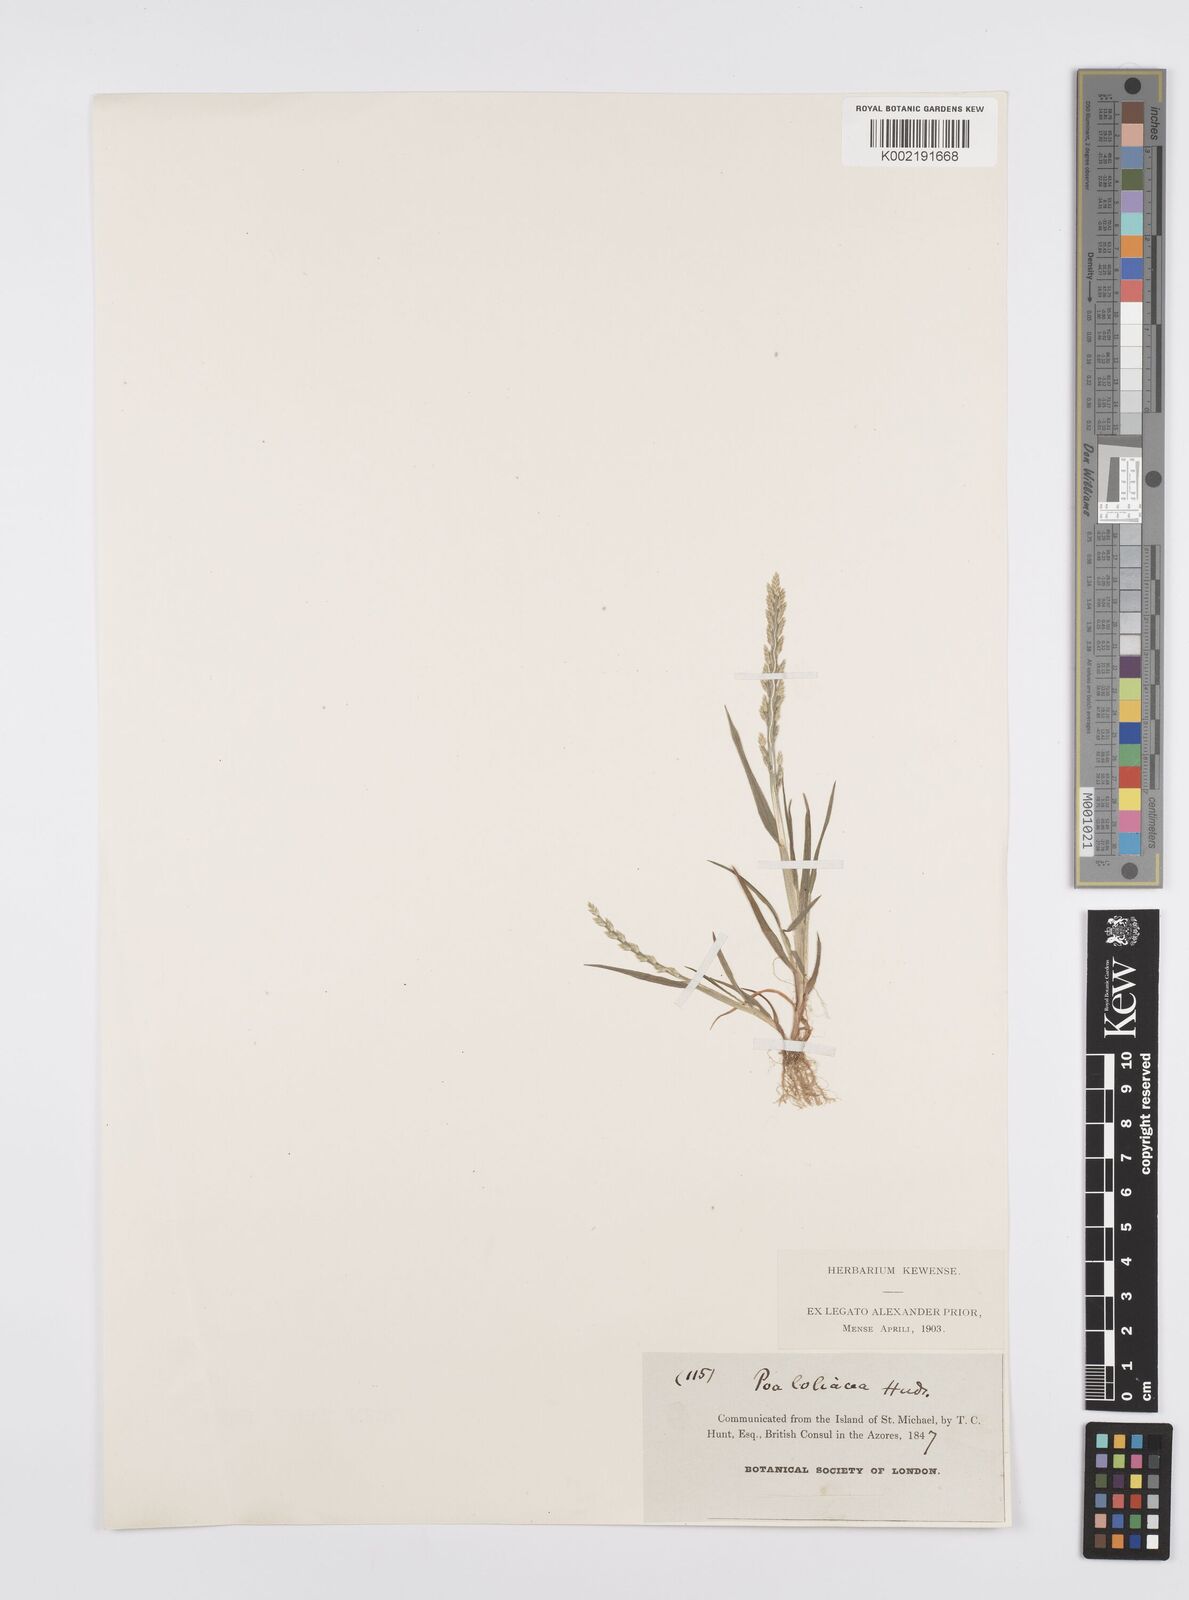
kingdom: Plantae
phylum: Tracheophyta
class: Liliopsida
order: Poales
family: Poaceae
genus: Catapodium
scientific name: Catapodium marinum
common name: Sea fern-grass
